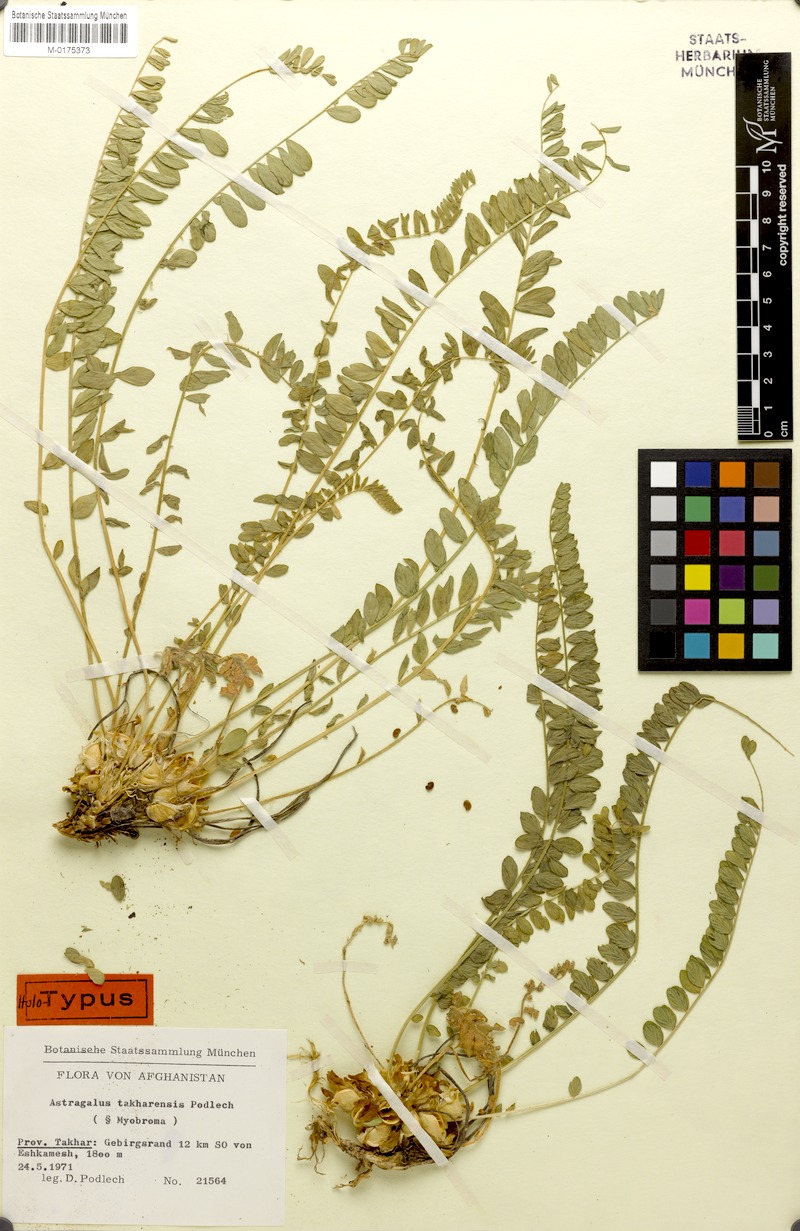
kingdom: Plantae
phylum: Tracheophyta
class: Magnoliopsida
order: Fabales
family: Fabaceae
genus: Astragalus
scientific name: Astragalus takharensis
